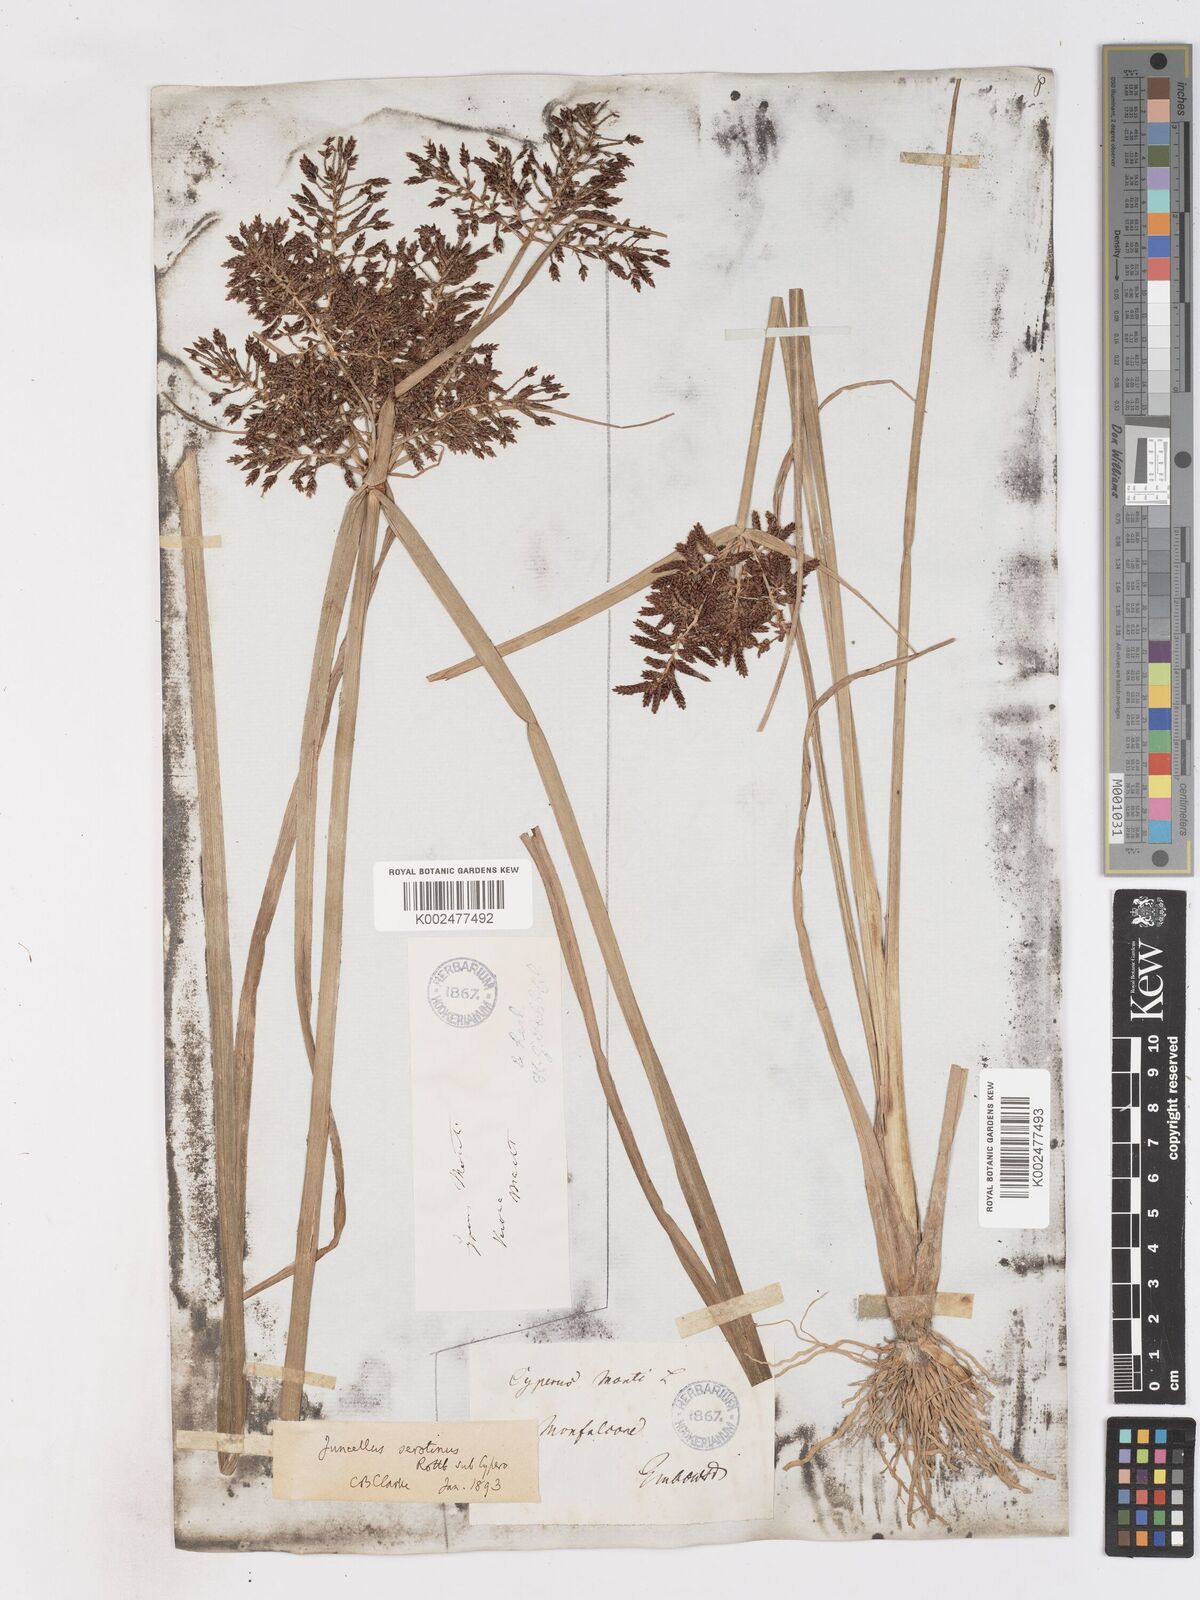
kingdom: Plantae
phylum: Tracheophyta
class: Liliopsida
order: Poales
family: Cyperaceae
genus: Cyperus
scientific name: Cyperus serotinus
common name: Tidalmarsh flatsedge
